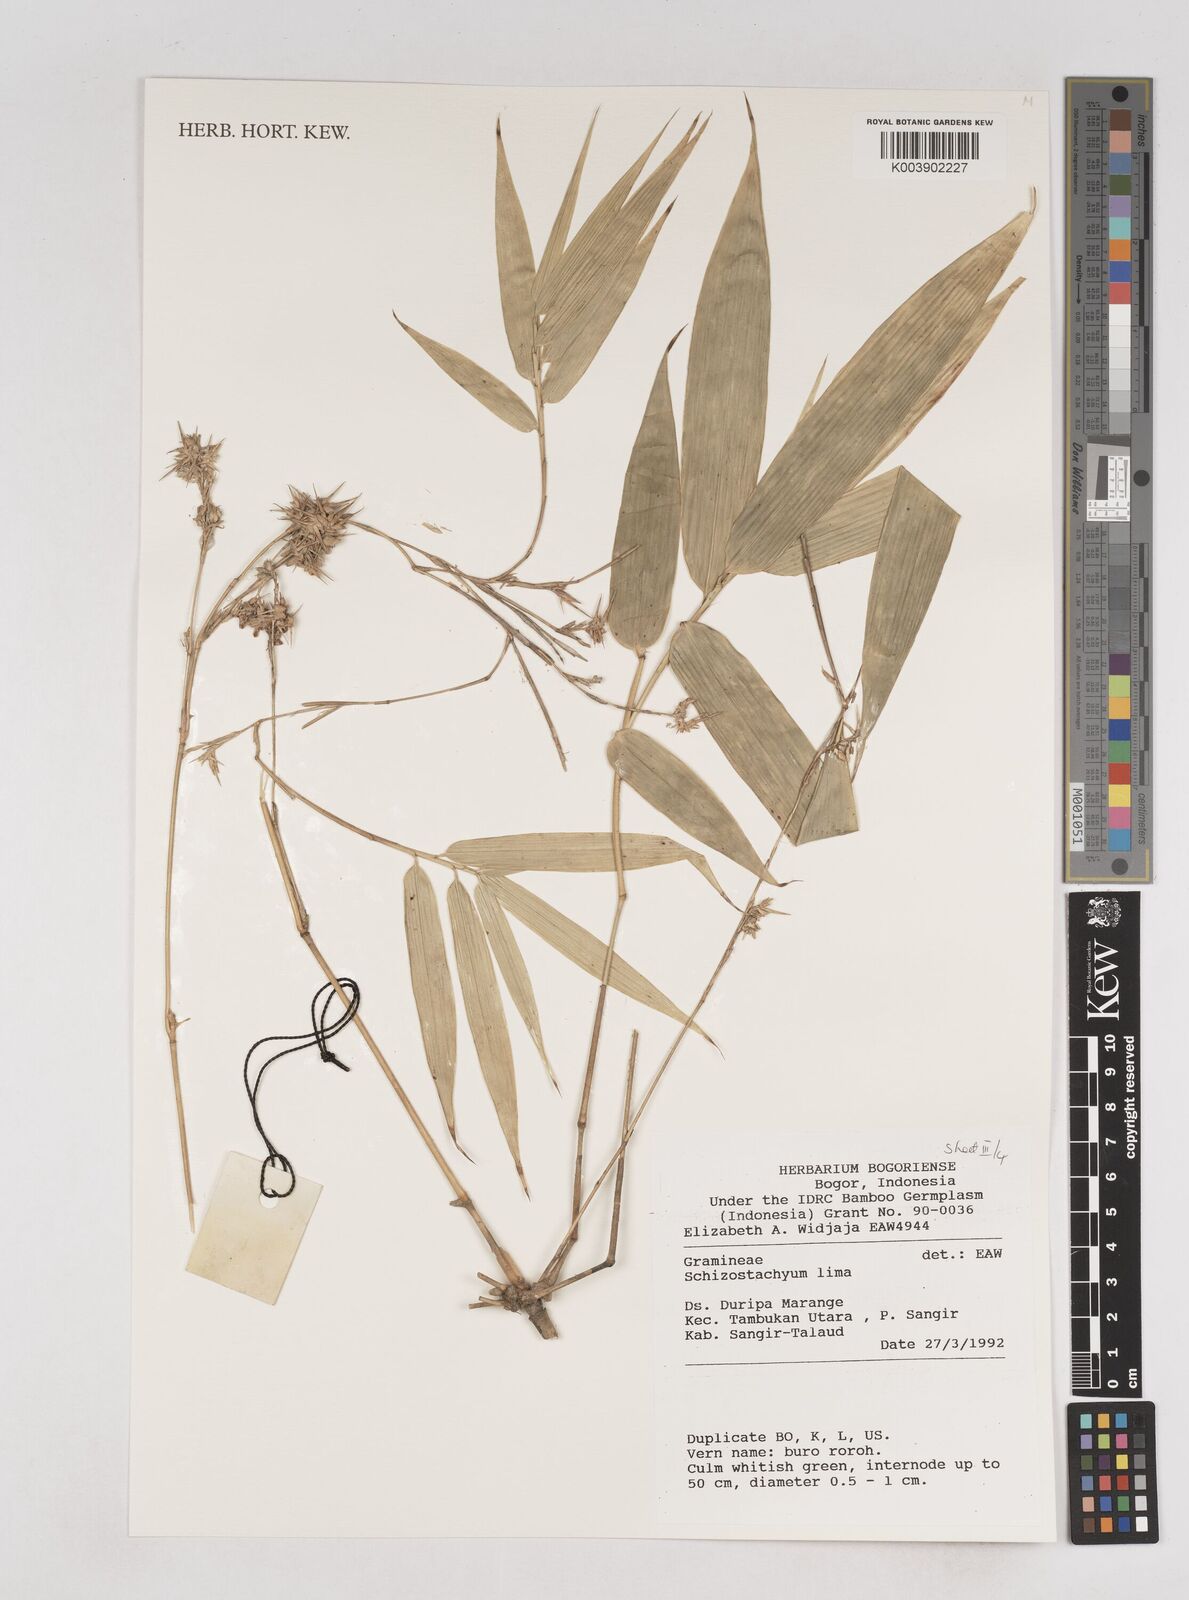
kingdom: Plantae
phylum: Tracheophyta
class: Liliopsida
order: Poales
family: Poaceae
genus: Schizostachyum
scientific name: Schizostachyum lima
